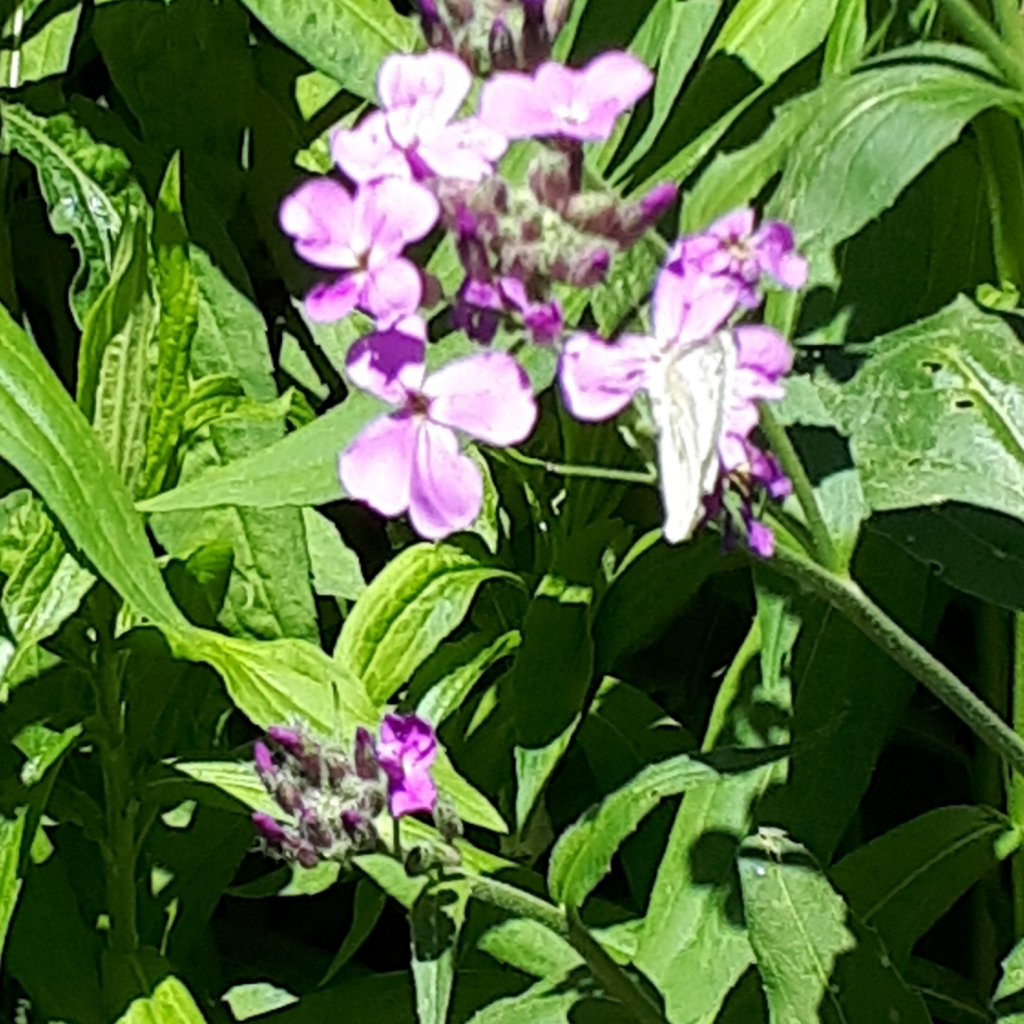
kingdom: Animalia
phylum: Arthropoda
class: Insecta
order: Lepidoptera
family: Pieridae
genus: Pieris
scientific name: Pieris rapae
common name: Cabbage White
